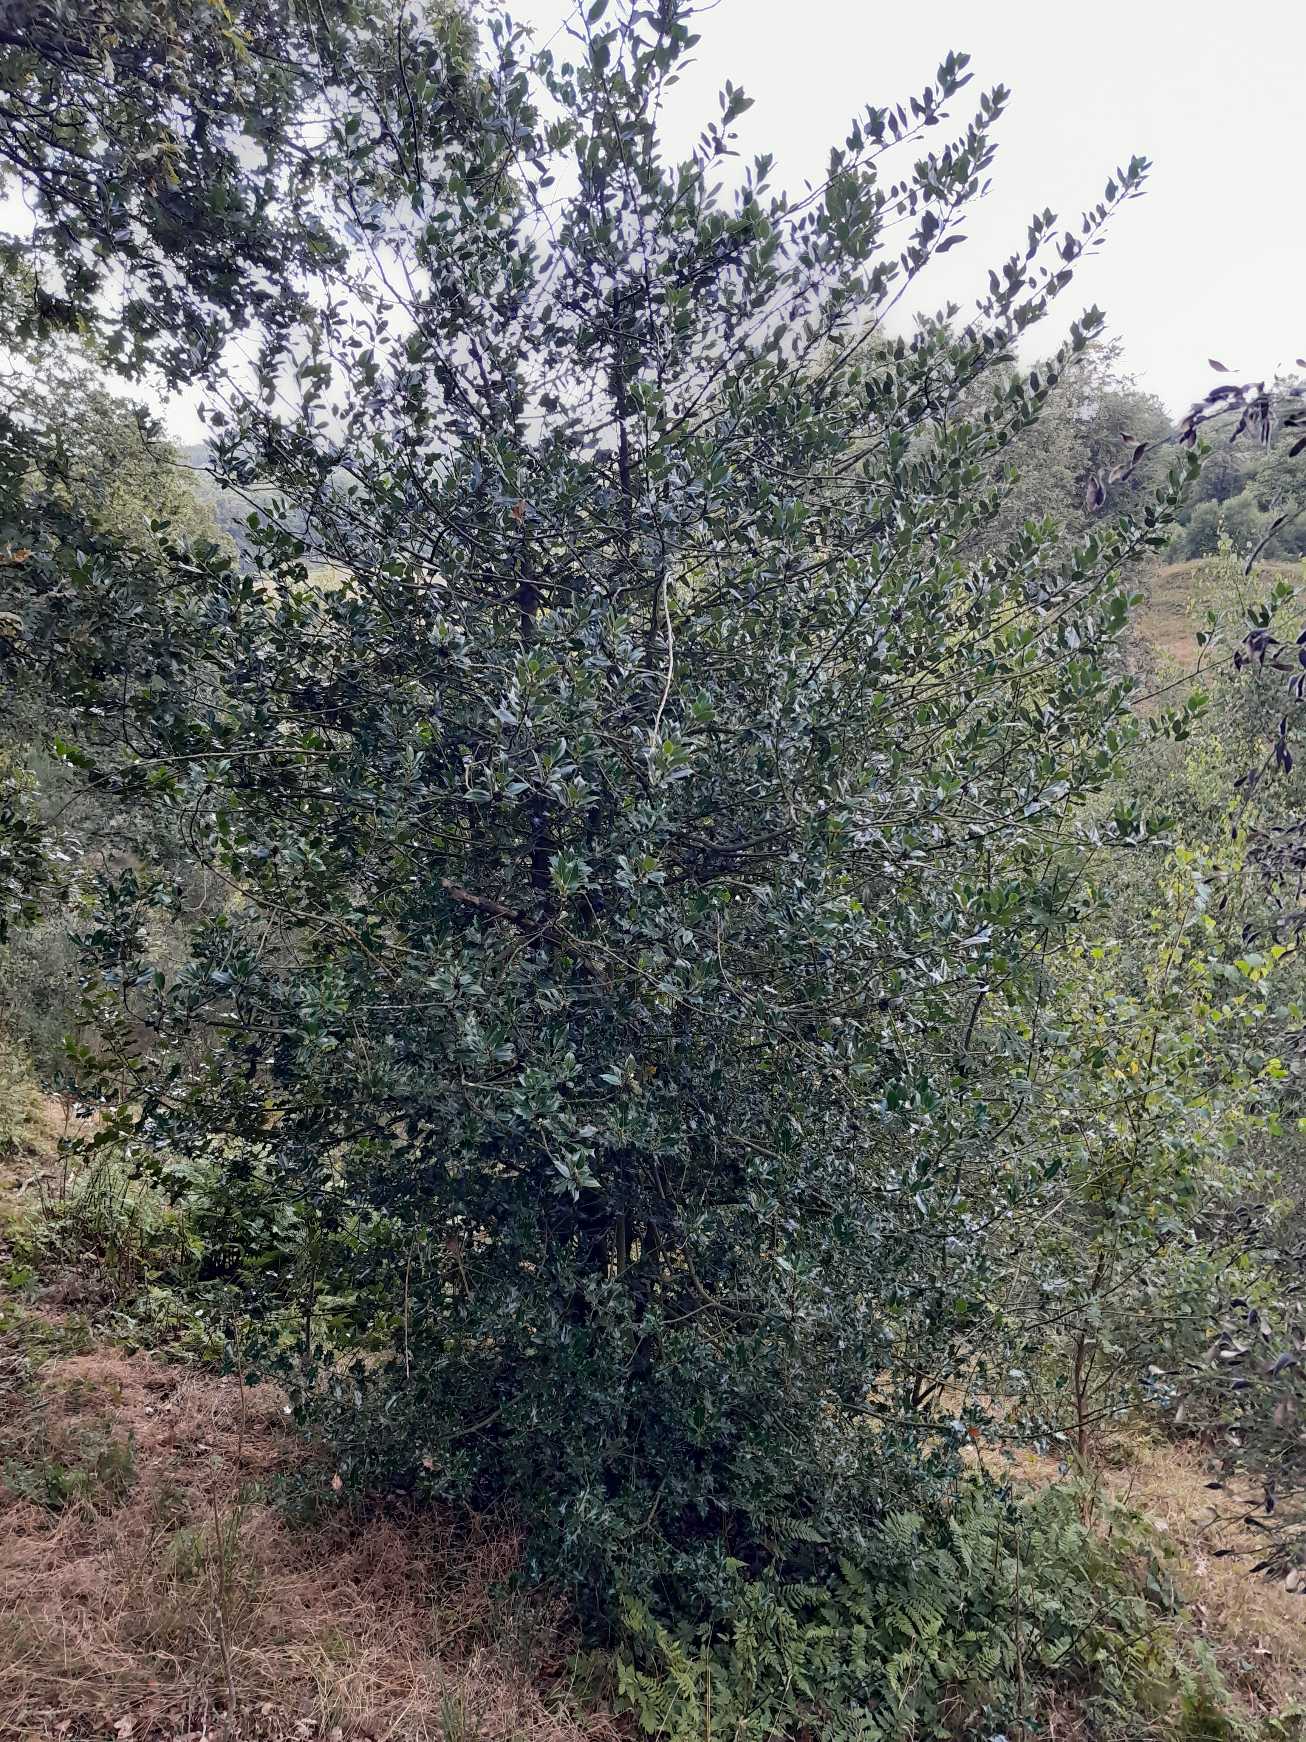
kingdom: Plantae
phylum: Tracheophyta
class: Magnoliopsida
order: Aquifoliales
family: Aquifoliaceae
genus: Ilex
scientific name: Ilex aquifolium
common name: Kristtorn
